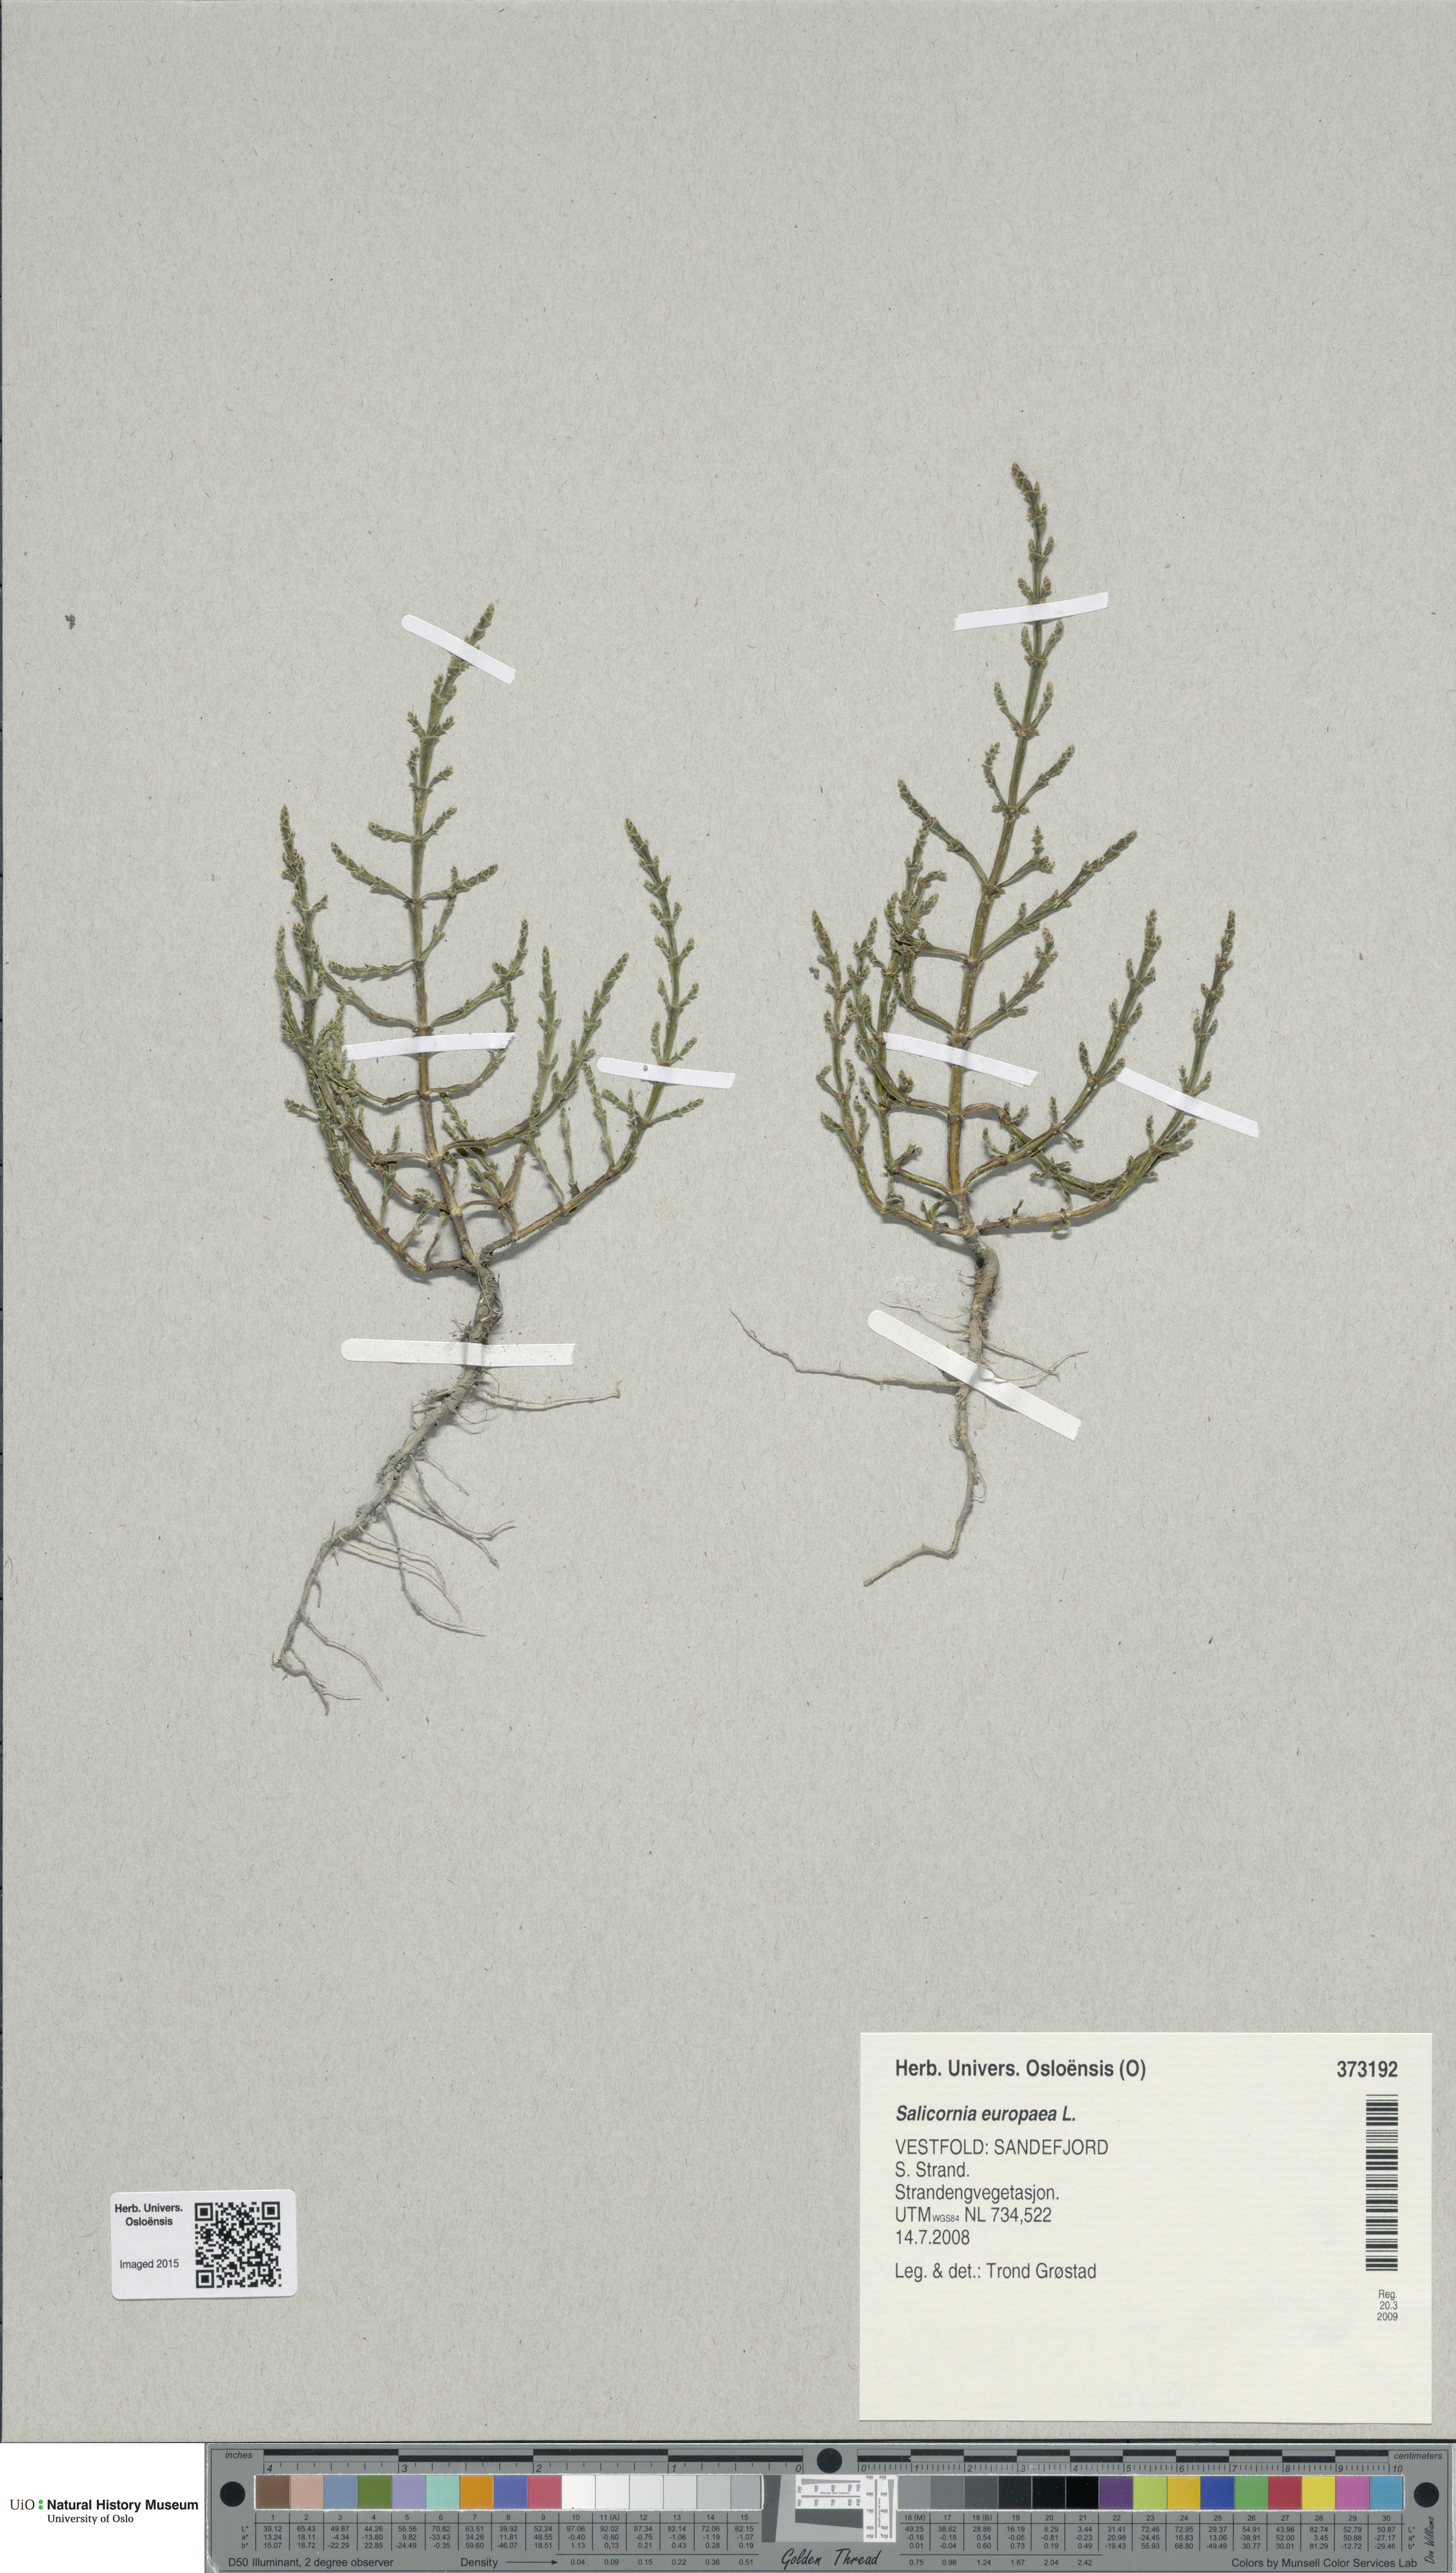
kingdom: Plantae
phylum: Tracheophyta
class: Magnoliopsida
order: Caryophyllales
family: Amaranthaceae
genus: Salicornia
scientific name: Salicornia europaea
